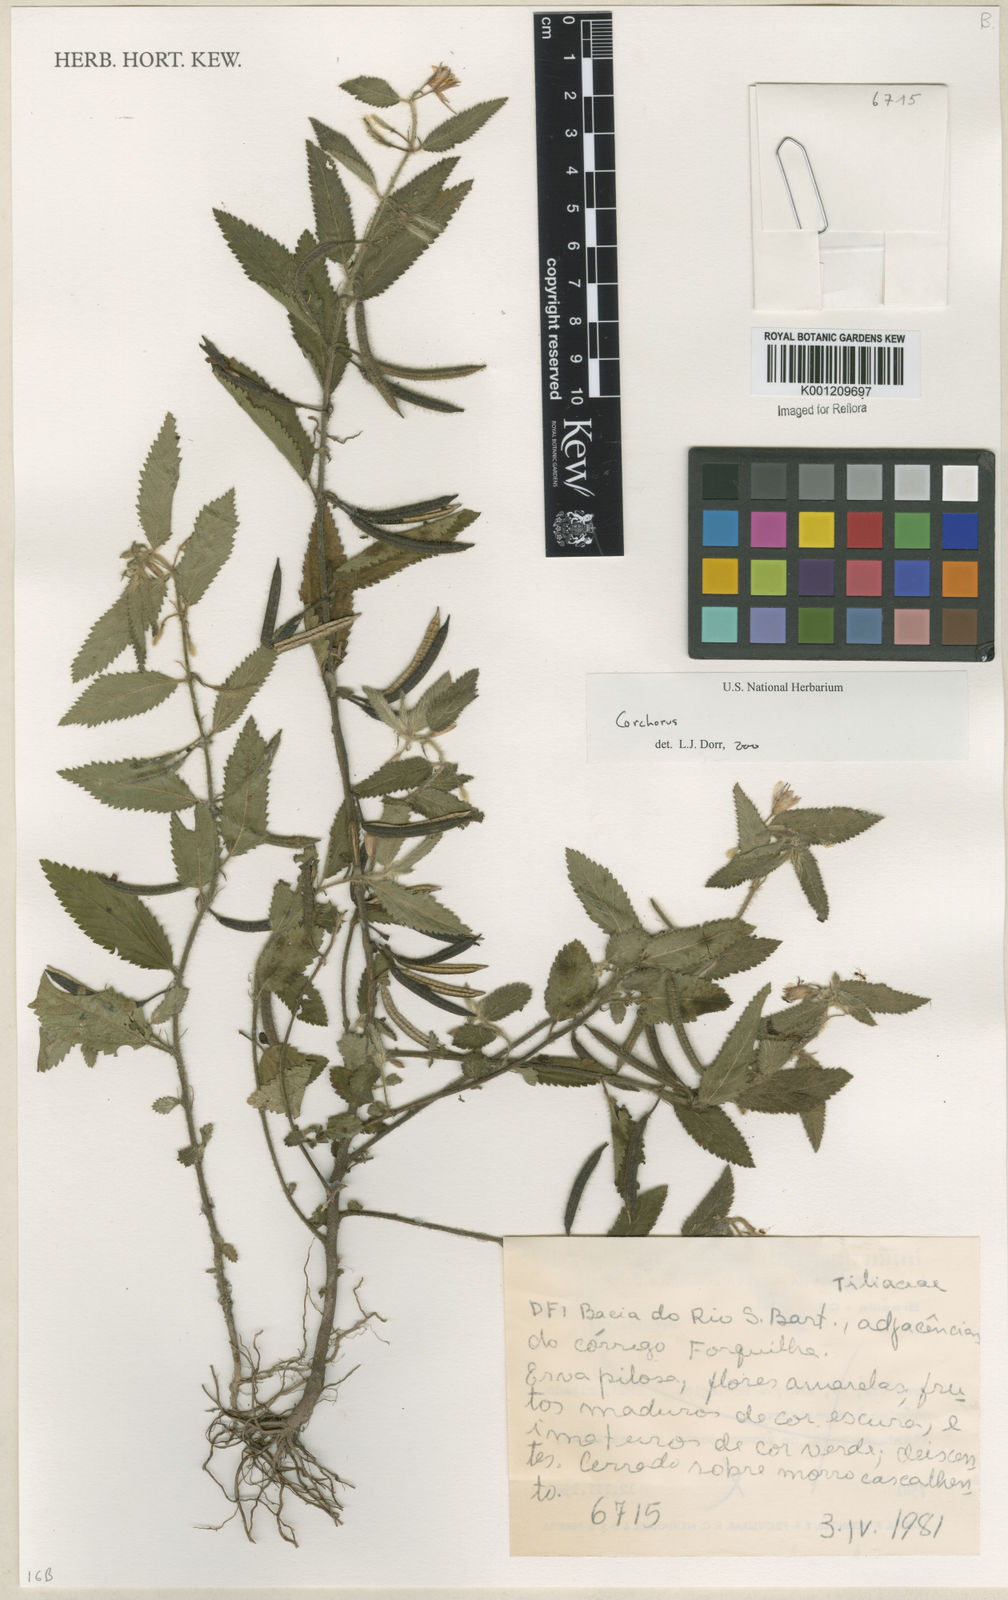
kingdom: Plantae
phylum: Tracheophyta
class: Magnoliopsida
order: Malvales
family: Malvaceae
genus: Corchorus
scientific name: Corchorus
